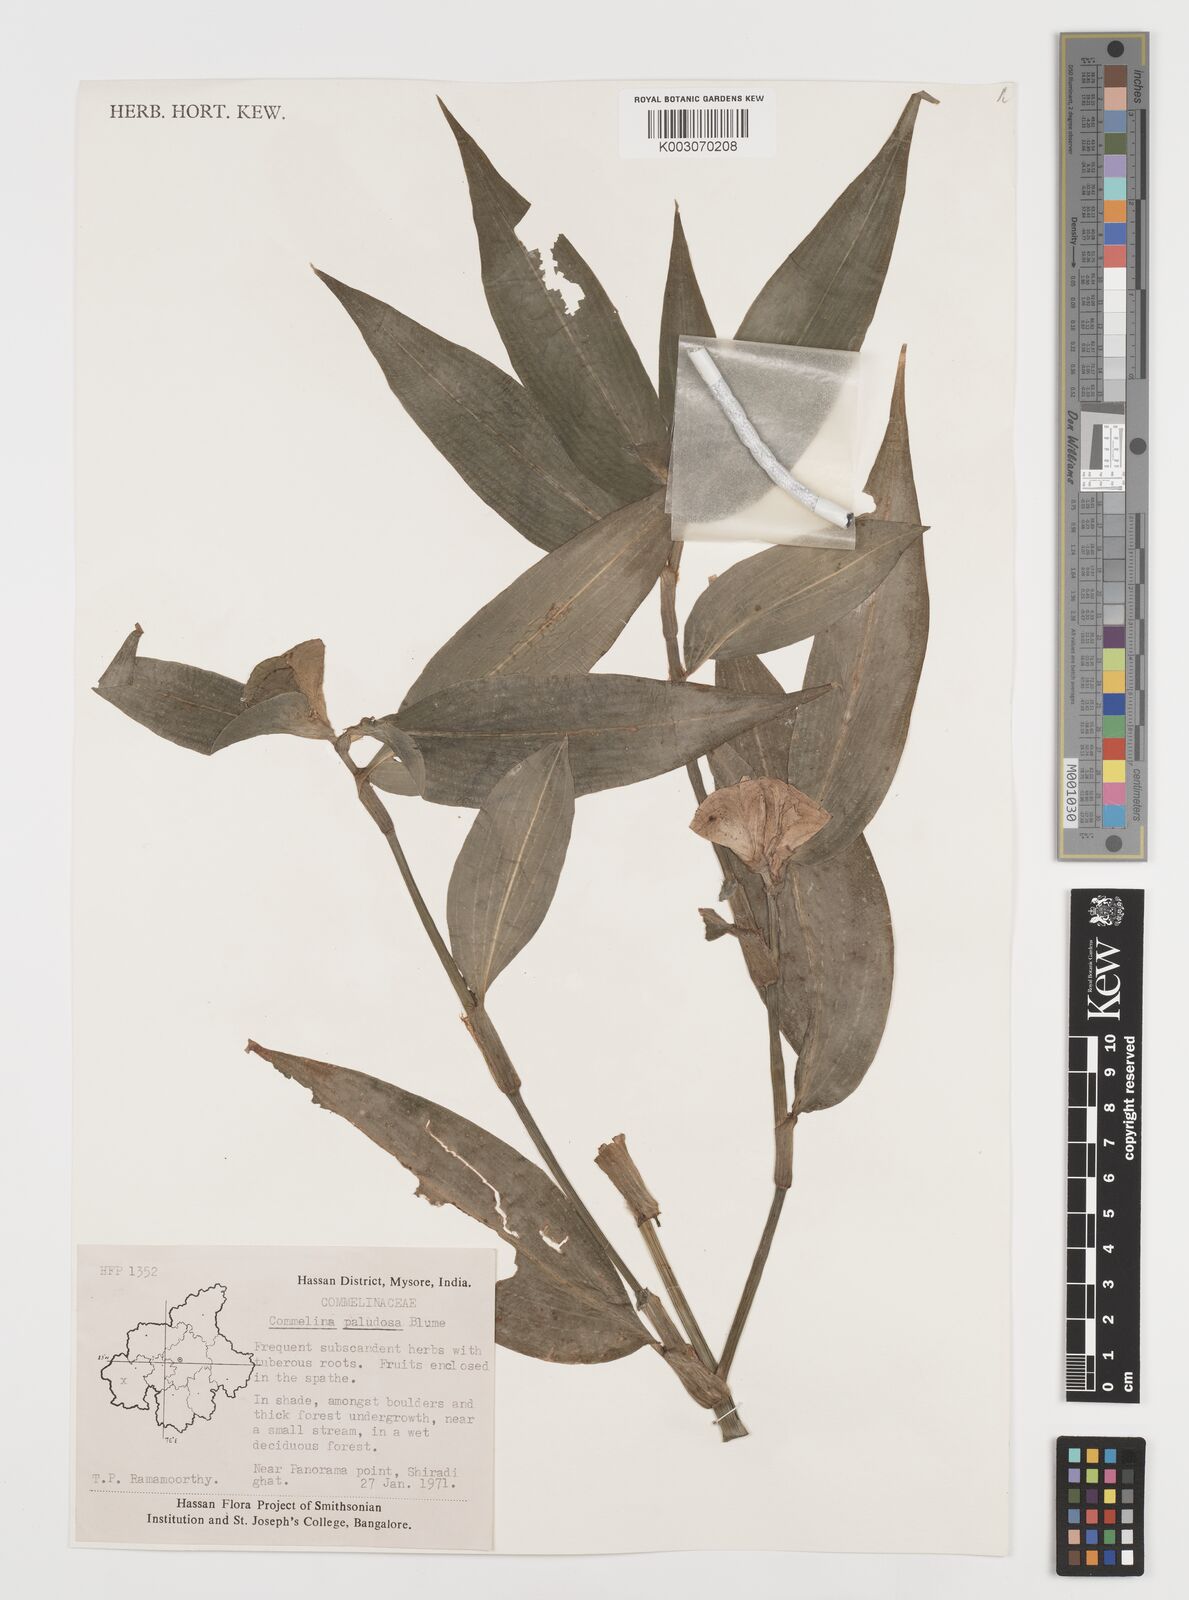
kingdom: Plantae
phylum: Tracheophyta
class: Liliopsida
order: Commelinales
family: Commelinaceae
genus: Commelina
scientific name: Commelina paludosa
